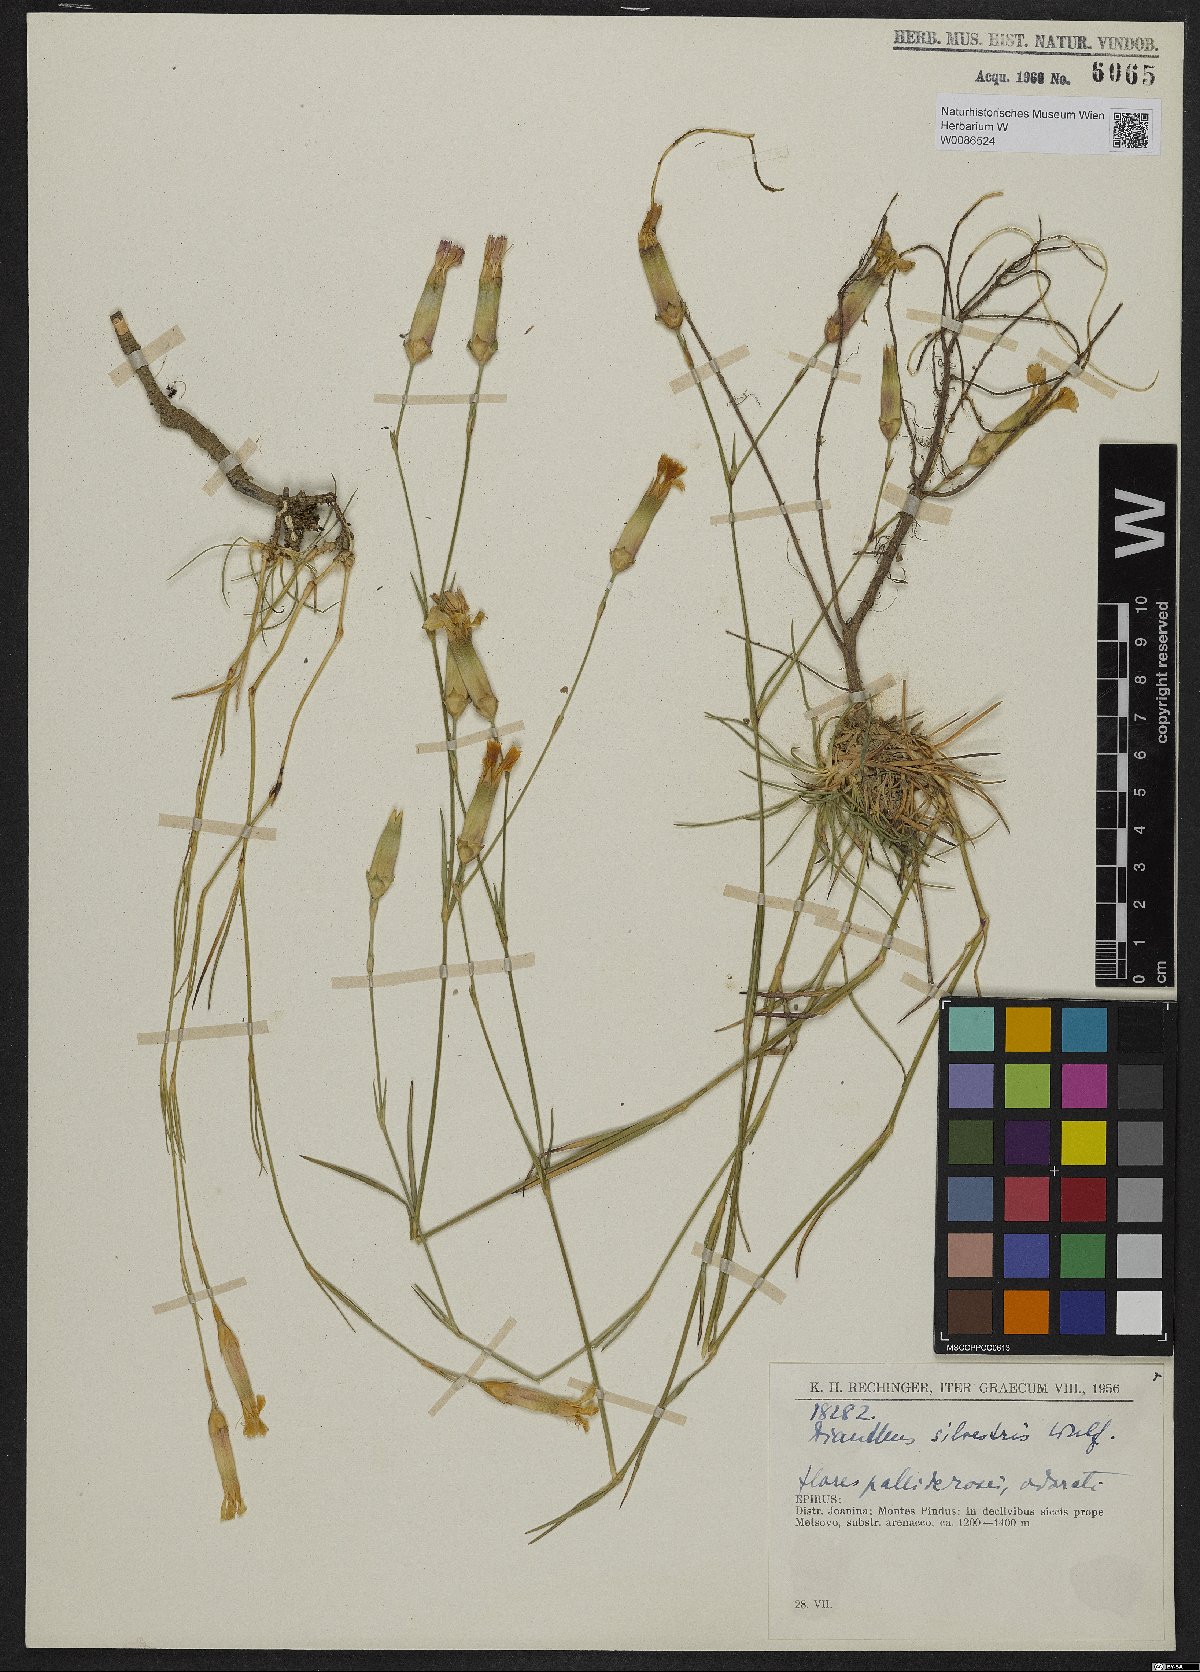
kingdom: Plantae
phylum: Tracheophyta
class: Magnoliopsida
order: Caryophyllales
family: Caryophyllaceae
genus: Dianthus
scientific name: Dianthus sylvestris
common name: Wood pink
